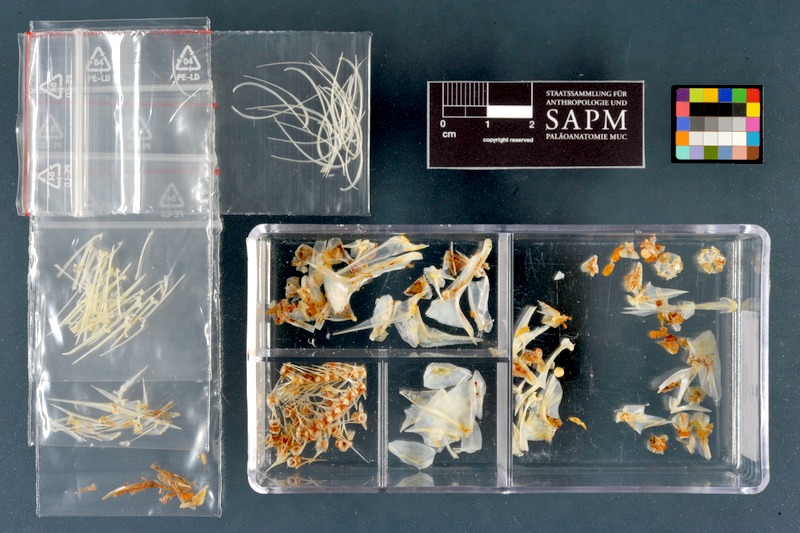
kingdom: Animalia
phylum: Chordata
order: Perciformes
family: Percidae
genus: Perca
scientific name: Perca fluviatilis
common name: Perch
